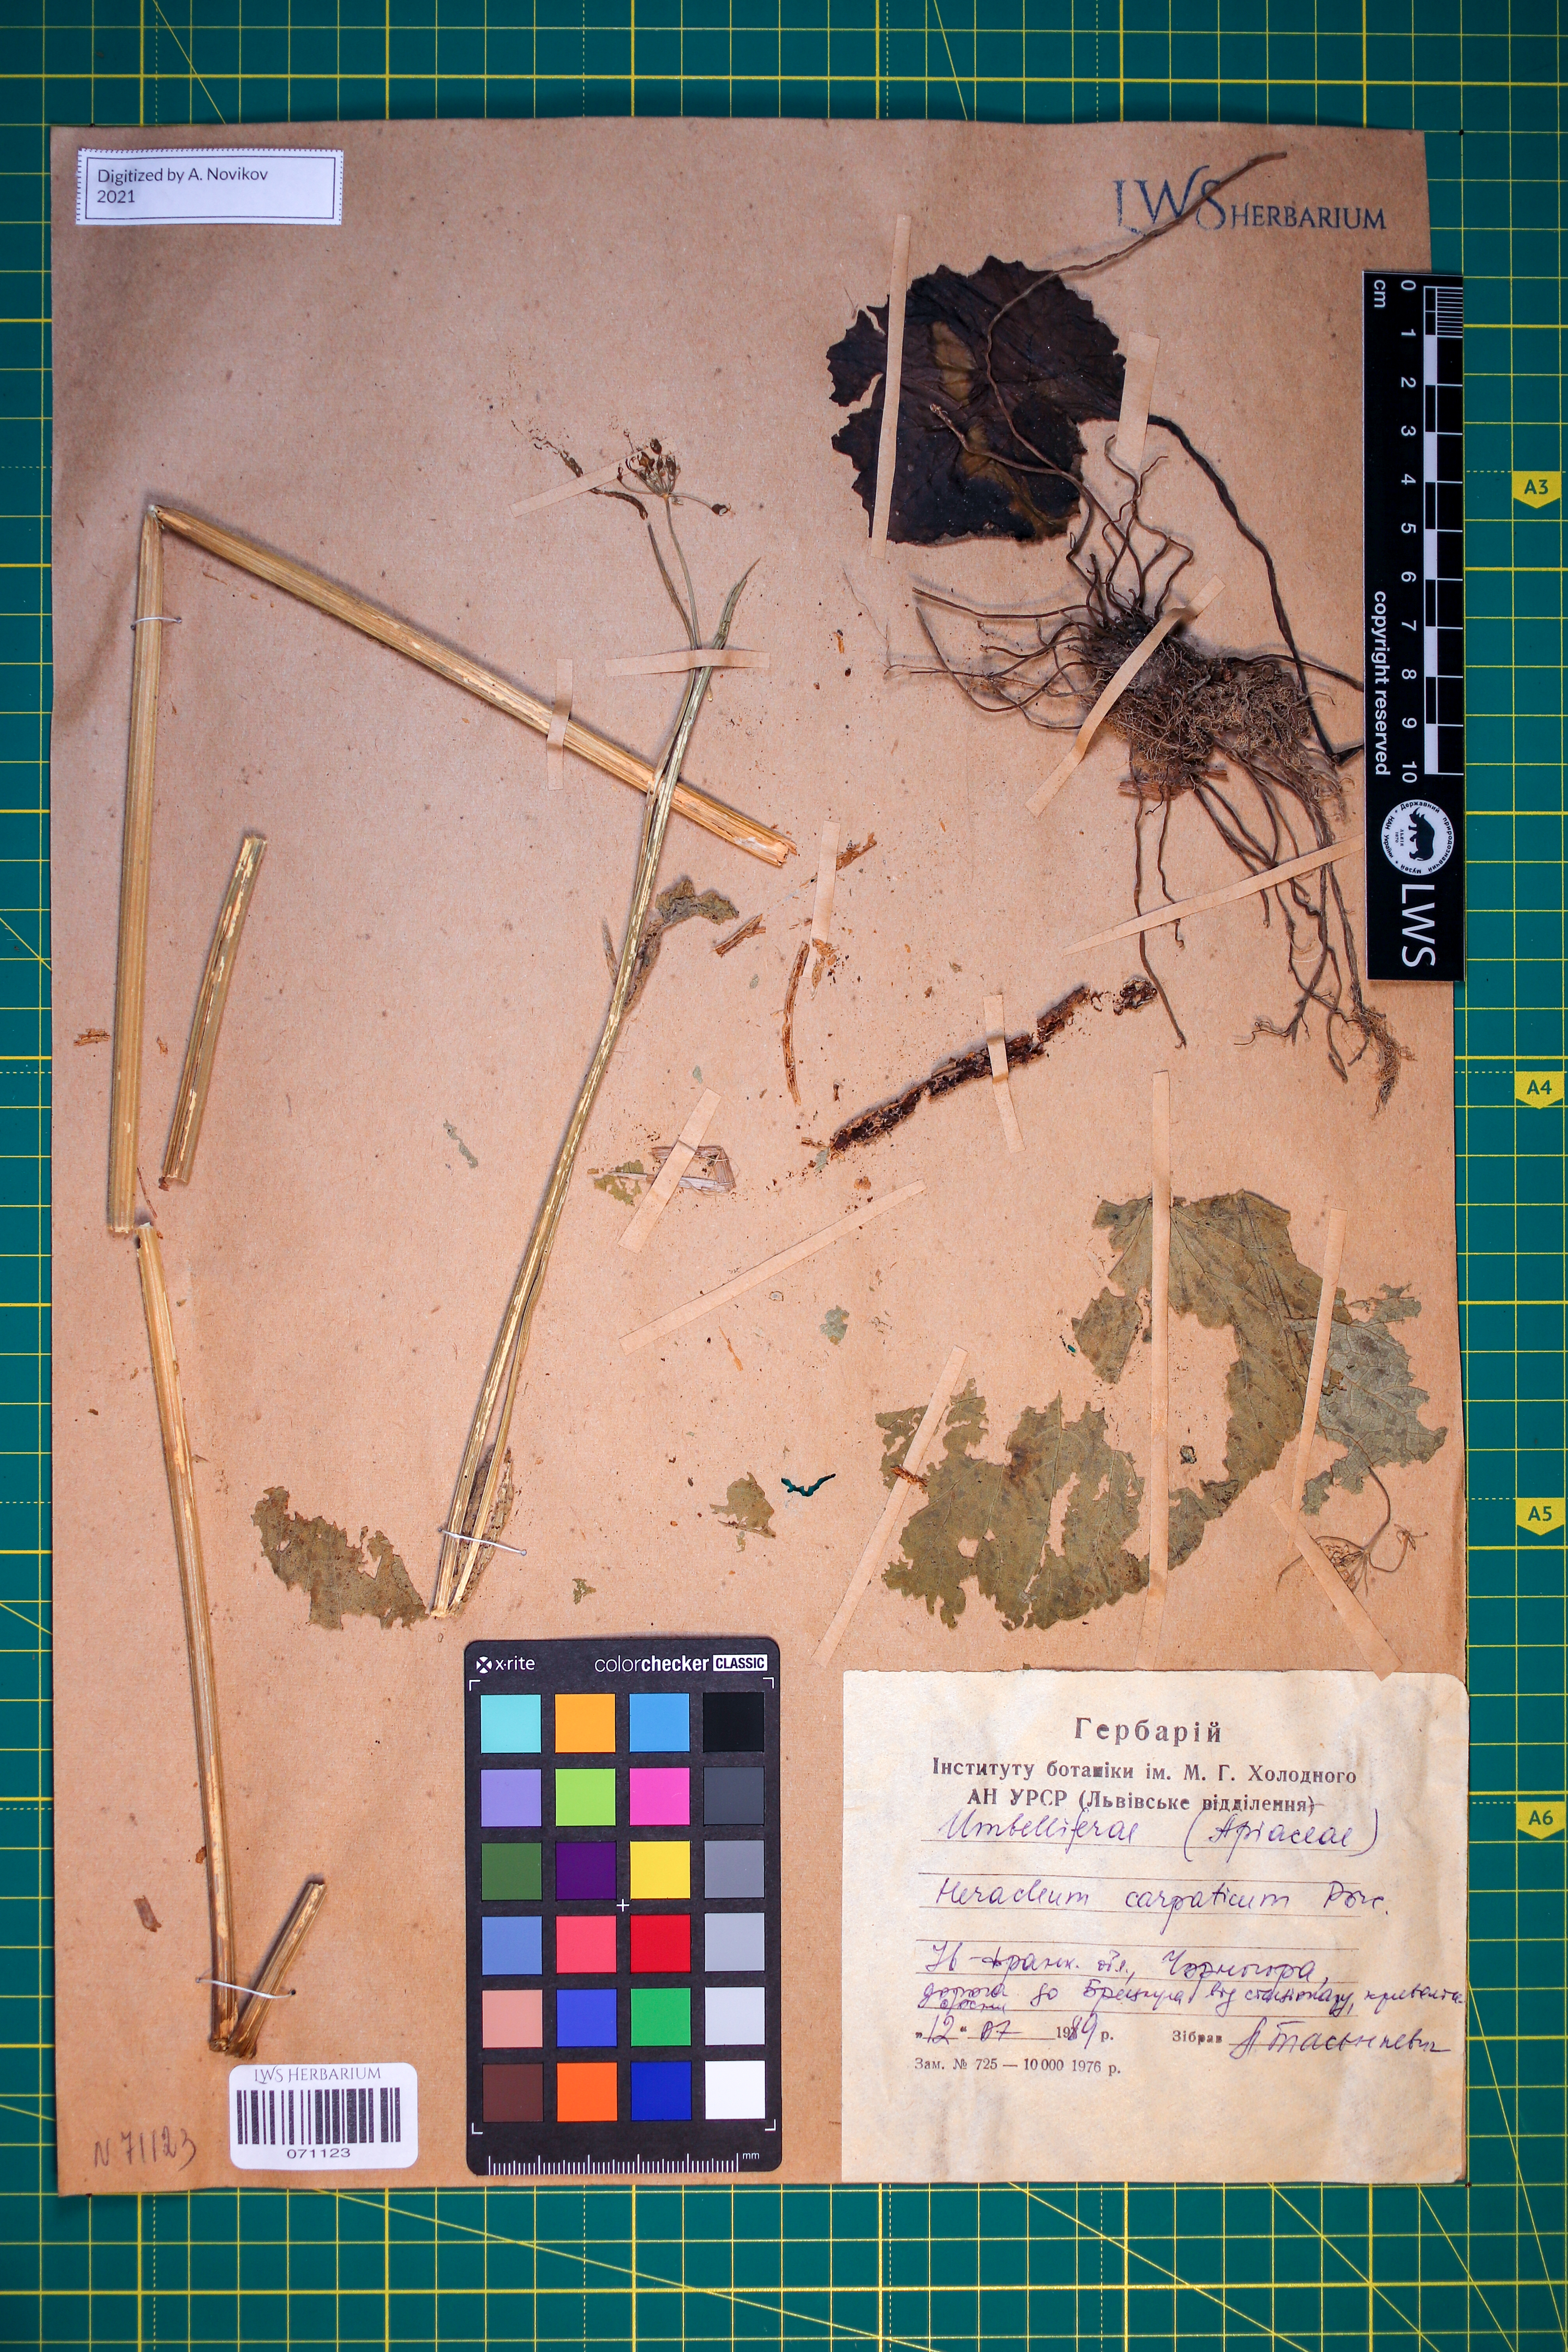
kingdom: Plantae
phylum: Tracheophyta
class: Magnoliopsida
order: Apiales
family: Apiaceae
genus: Heracleum
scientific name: Heracleum carpaticum
